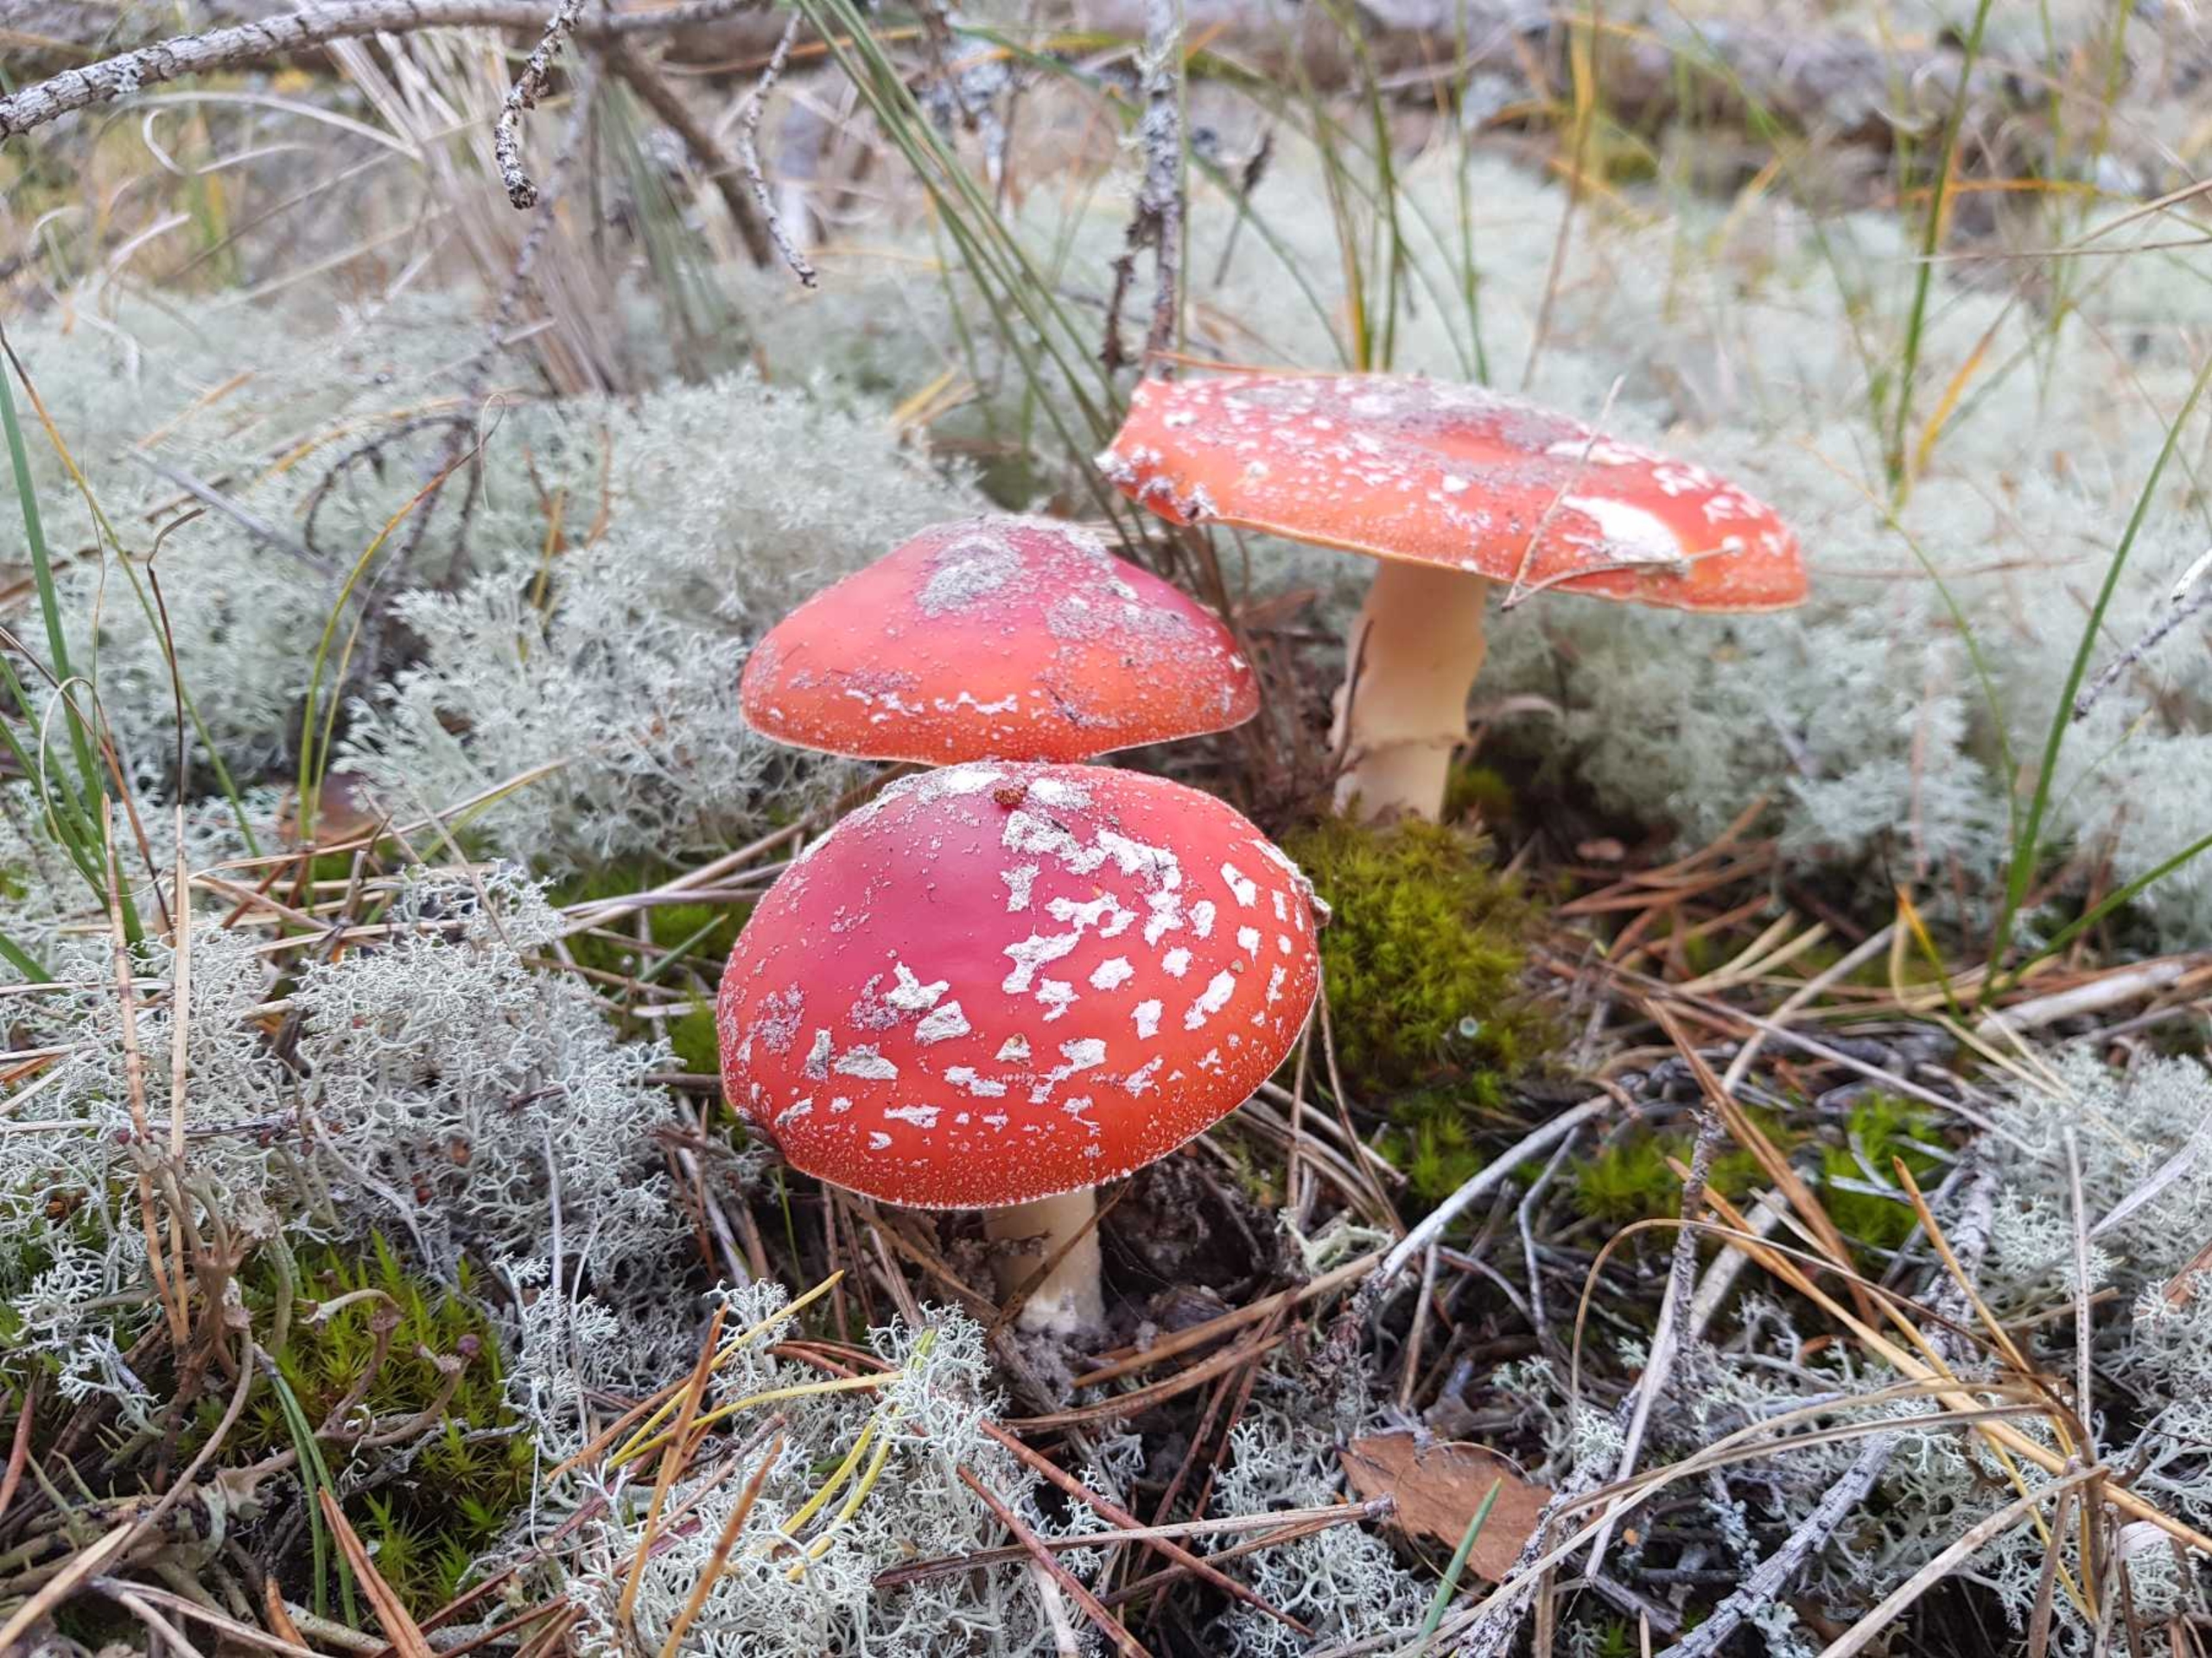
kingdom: Fungi
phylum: Basidiomycota
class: Agaricomycetes
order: Agaricales
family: Amanitaceae
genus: Amanita
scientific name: Amanita muscaria
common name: Rød fluesvamp
